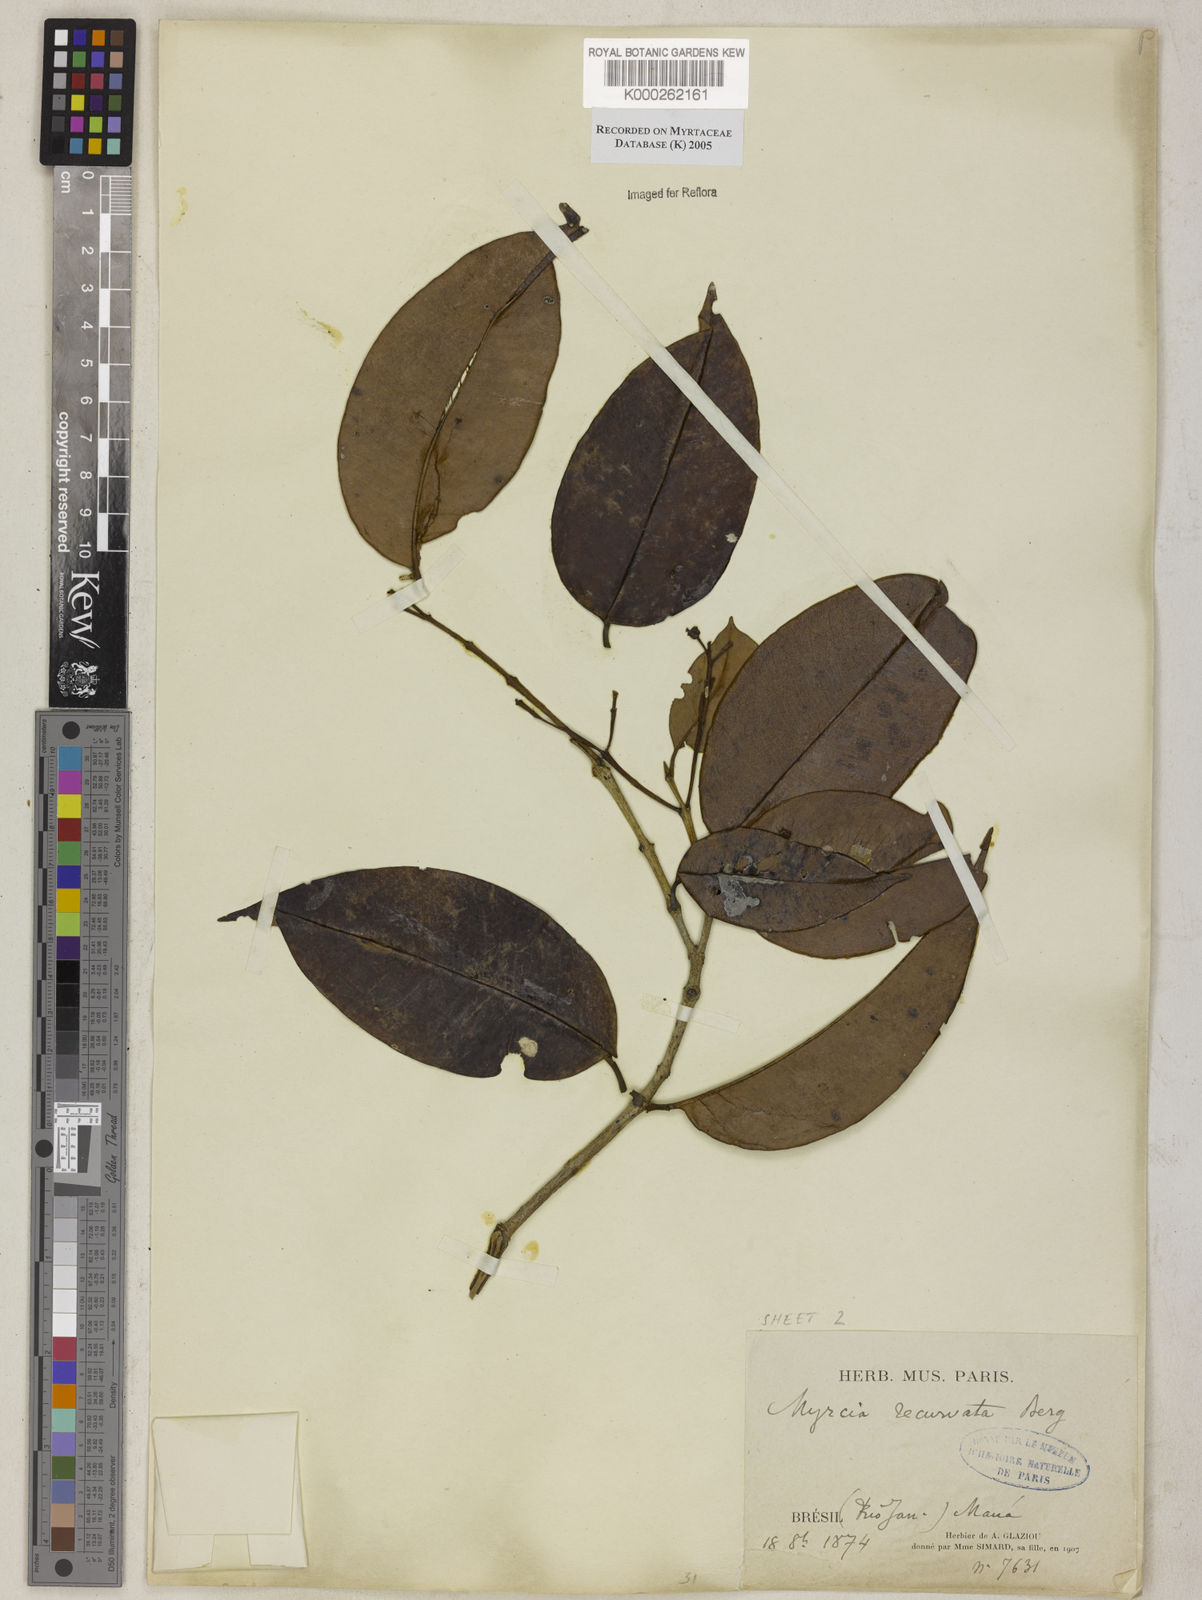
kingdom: Plantae
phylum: Tracheophyta
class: Magnoliopsida
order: Myrtales
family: Myrtaceae
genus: Myrcia
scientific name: Myrcia recurvata
